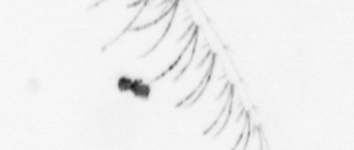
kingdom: Chromista
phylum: Ochrophyta
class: Bacillariophyceae
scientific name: Bacillariophyceae
